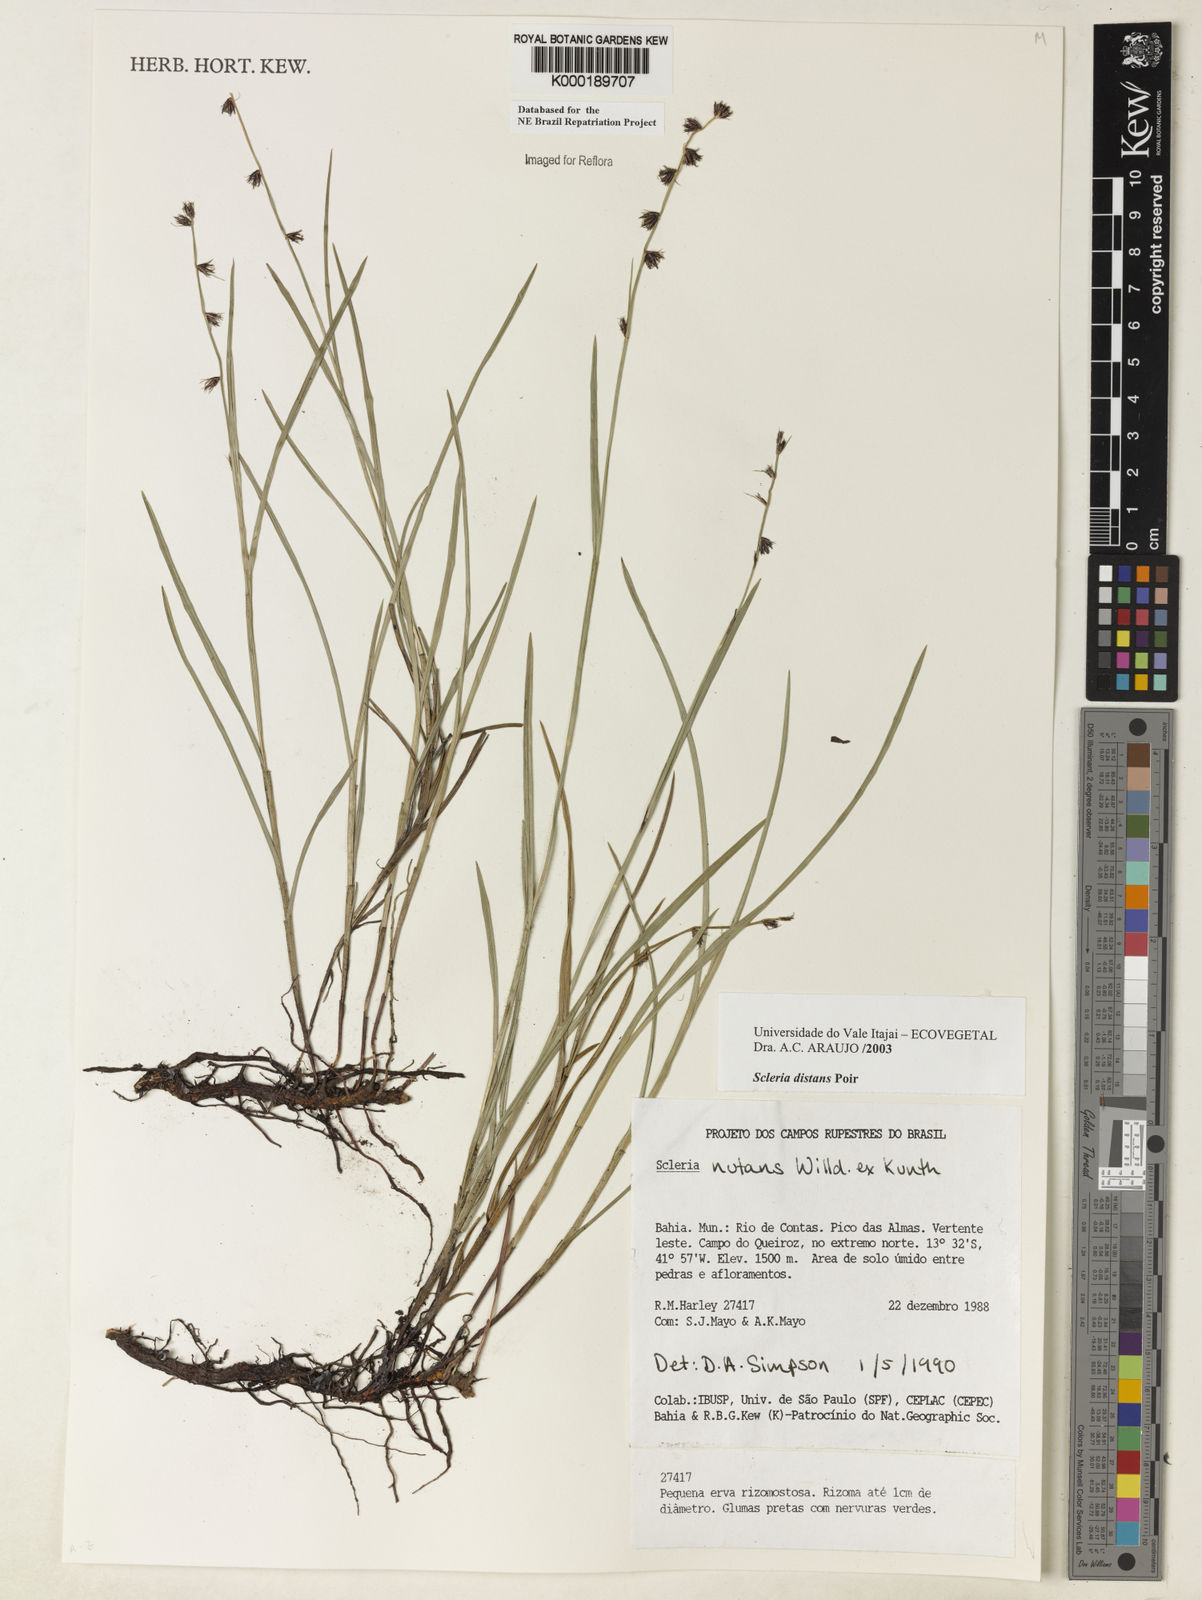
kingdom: Plantae
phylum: Tracheophyta
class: Liliopsida
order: Poales
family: Cyperaceae
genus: Scleria
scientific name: Scleria distans
